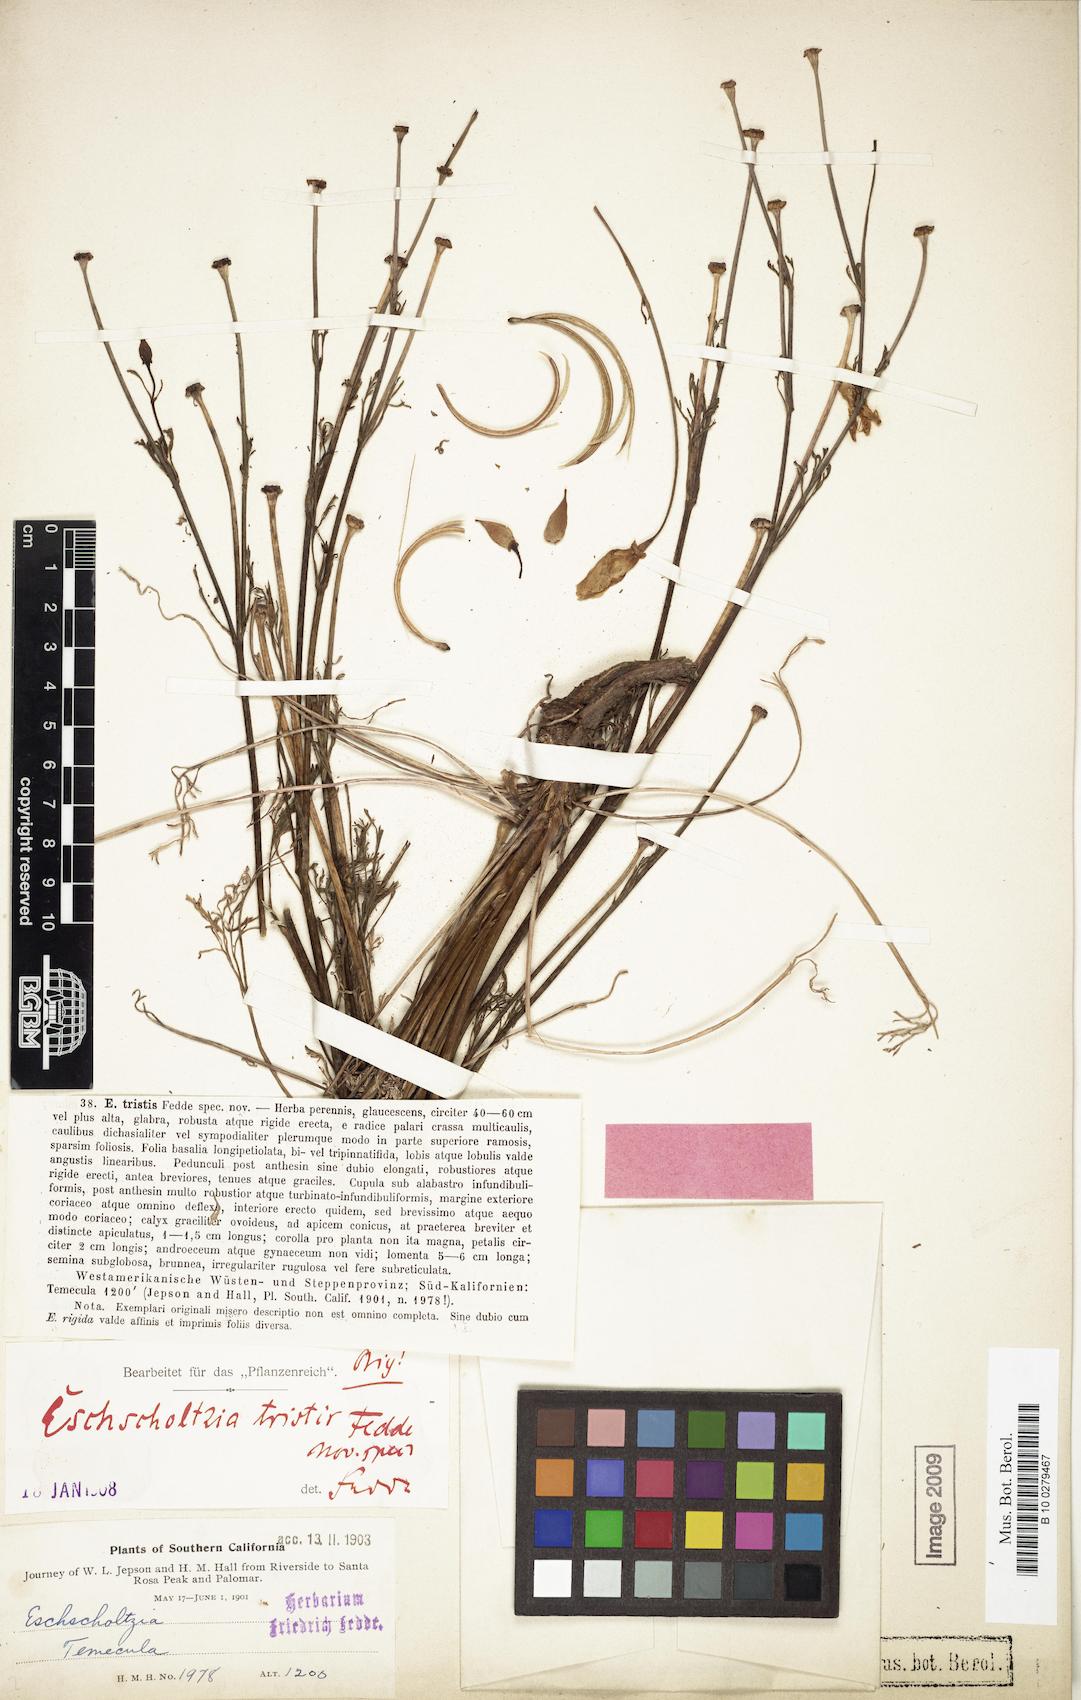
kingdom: Plantae
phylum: Tracheophyta
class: Magnoliopsida
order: Ranunculales
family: Papaveraceae
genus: Eschscholzia
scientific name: Eschscholzia californica
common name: California poppy
